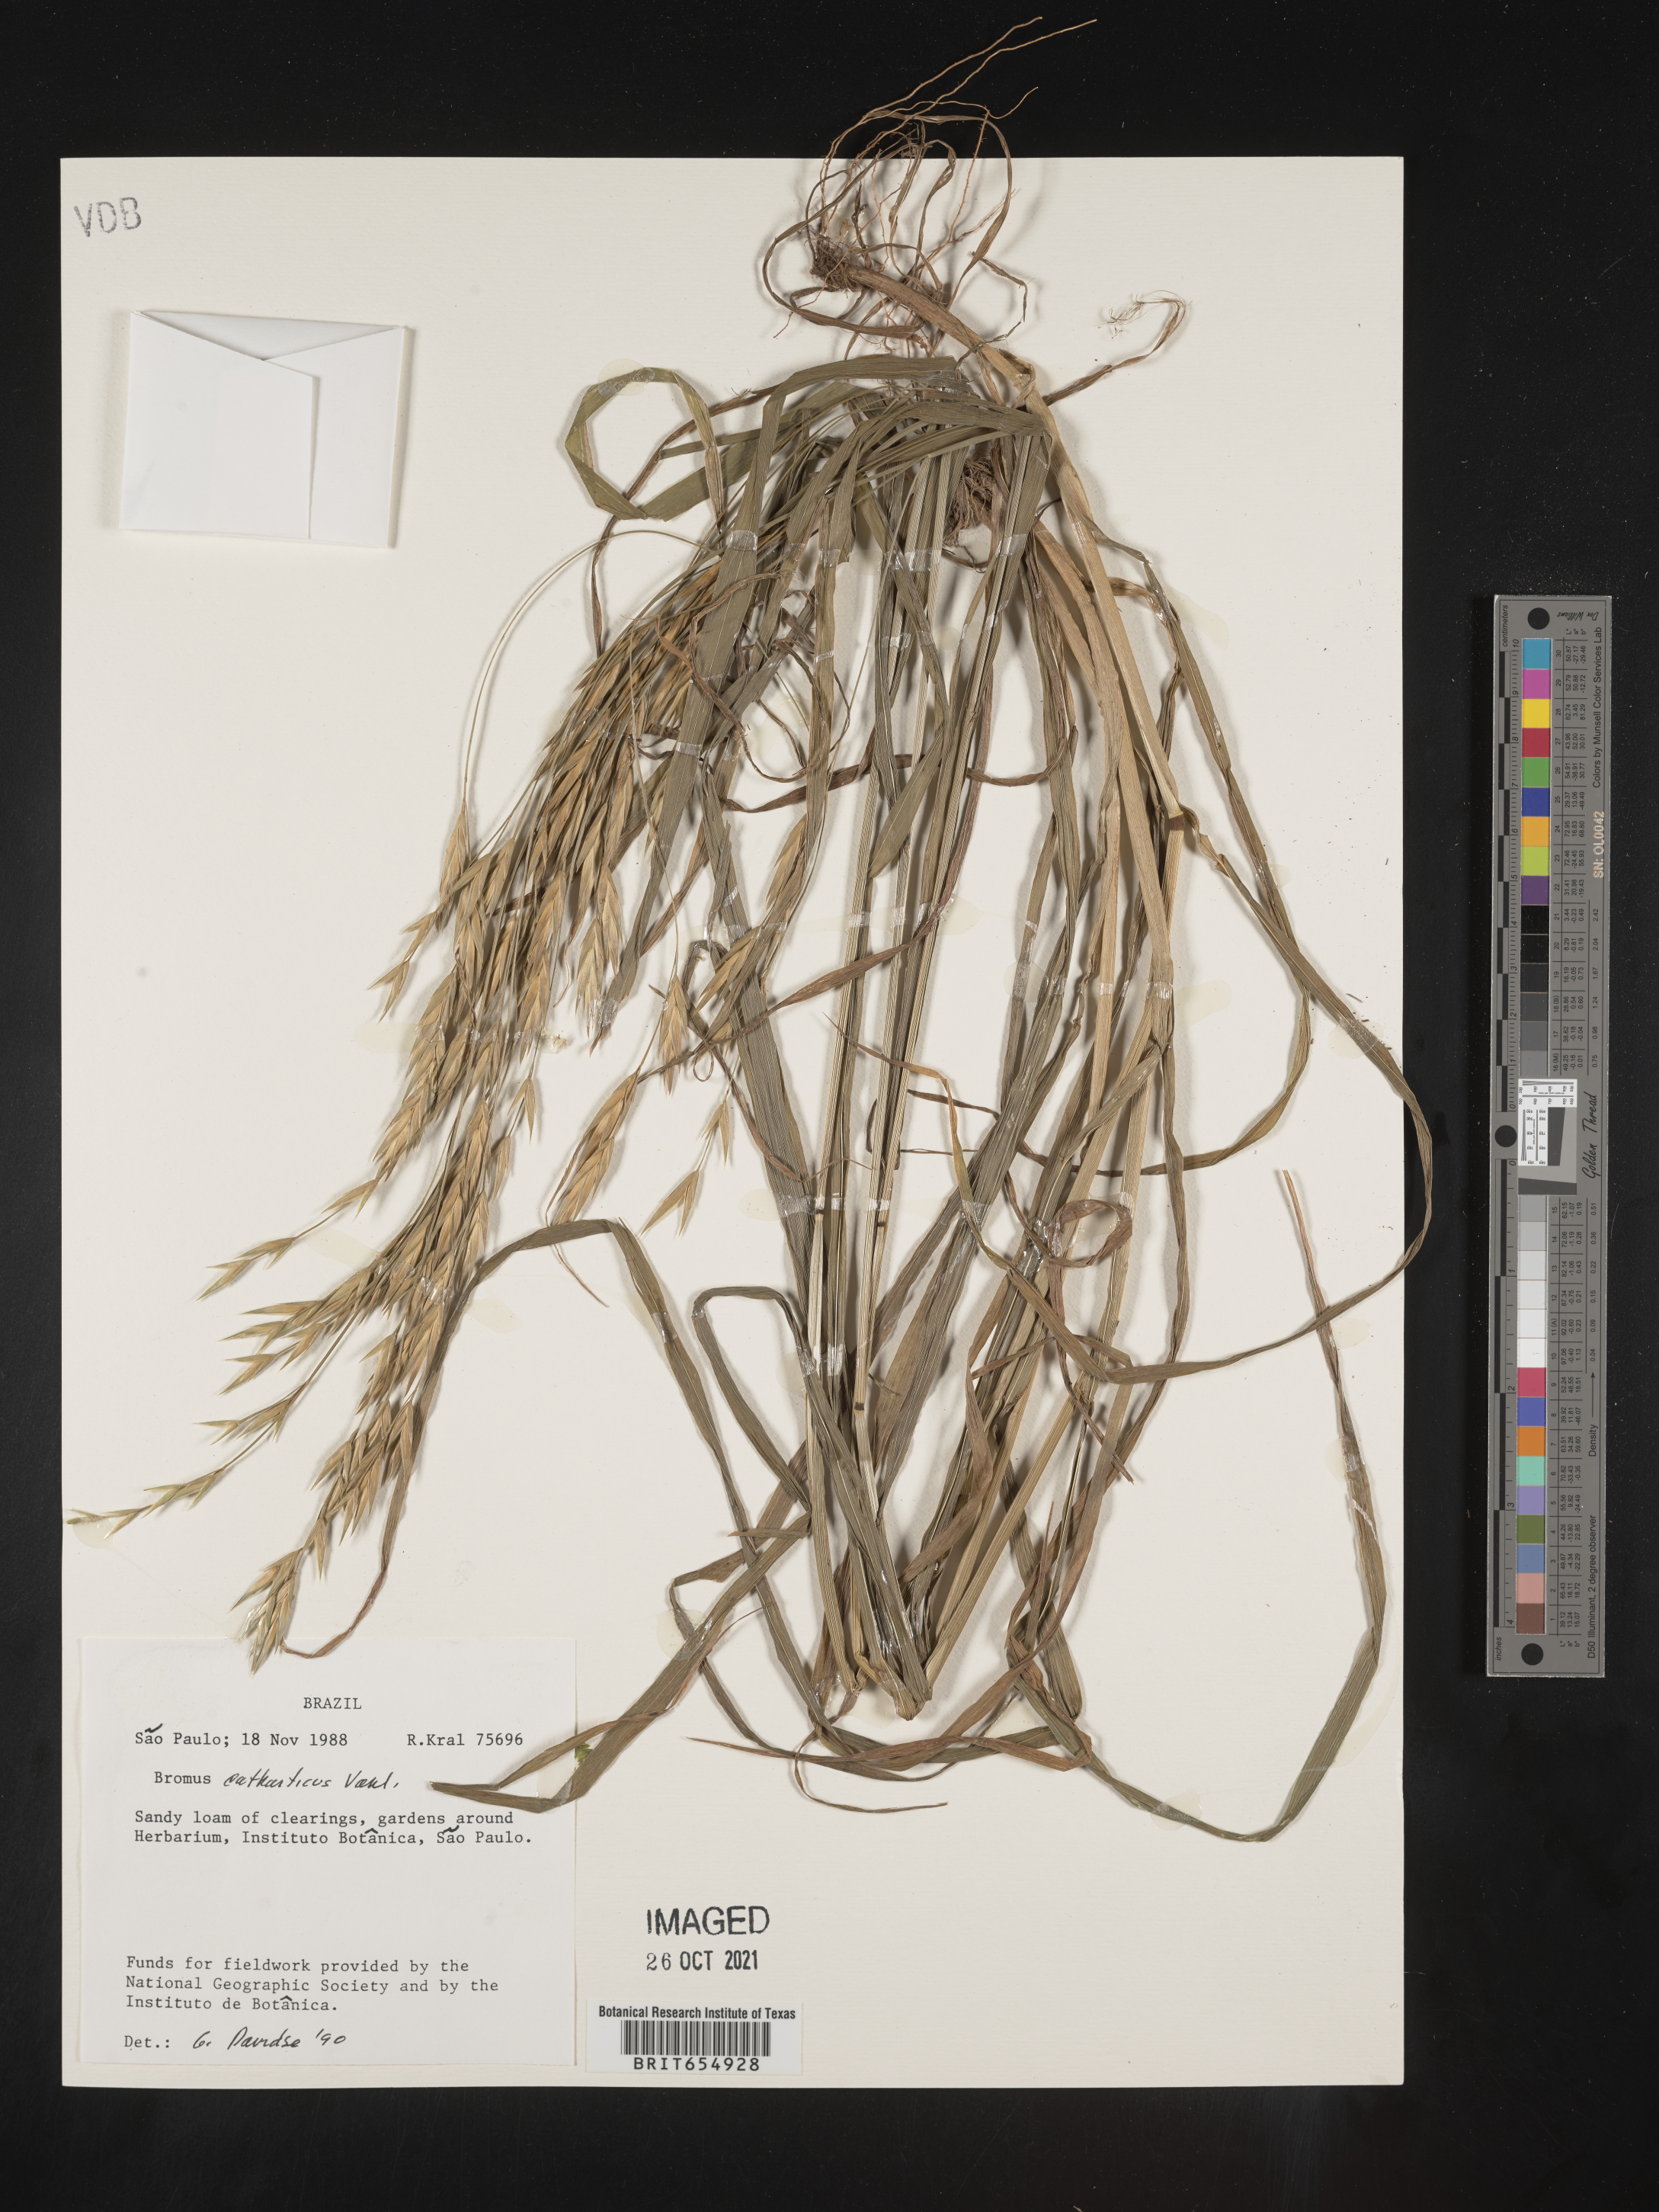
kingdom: Plantae
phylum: Tracheophyta
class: Liliopsida
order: Poales
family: Poaceae
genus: Bromus
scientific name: Bromus
